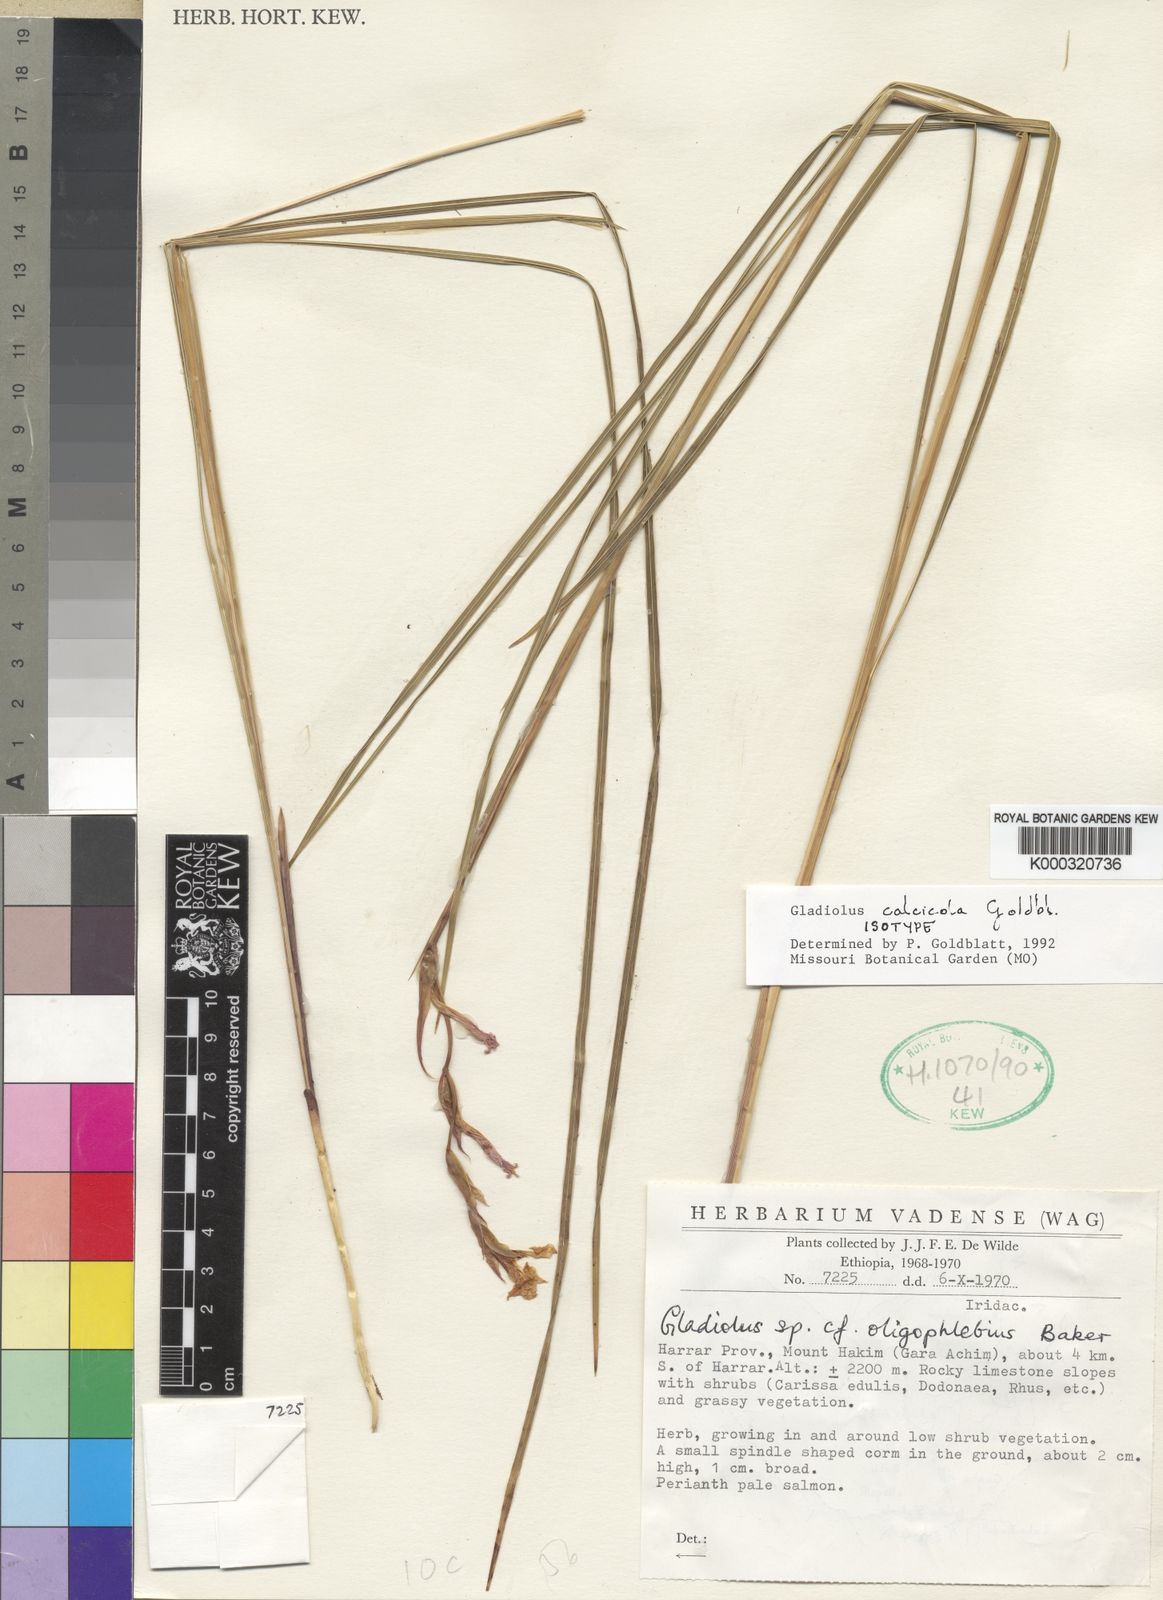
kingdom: Plantae
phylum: Tracheophyta
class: Liliopsida
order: Asparagales
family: Iridaceae
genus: Gladiolus
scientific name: Gladiolus calcicola
